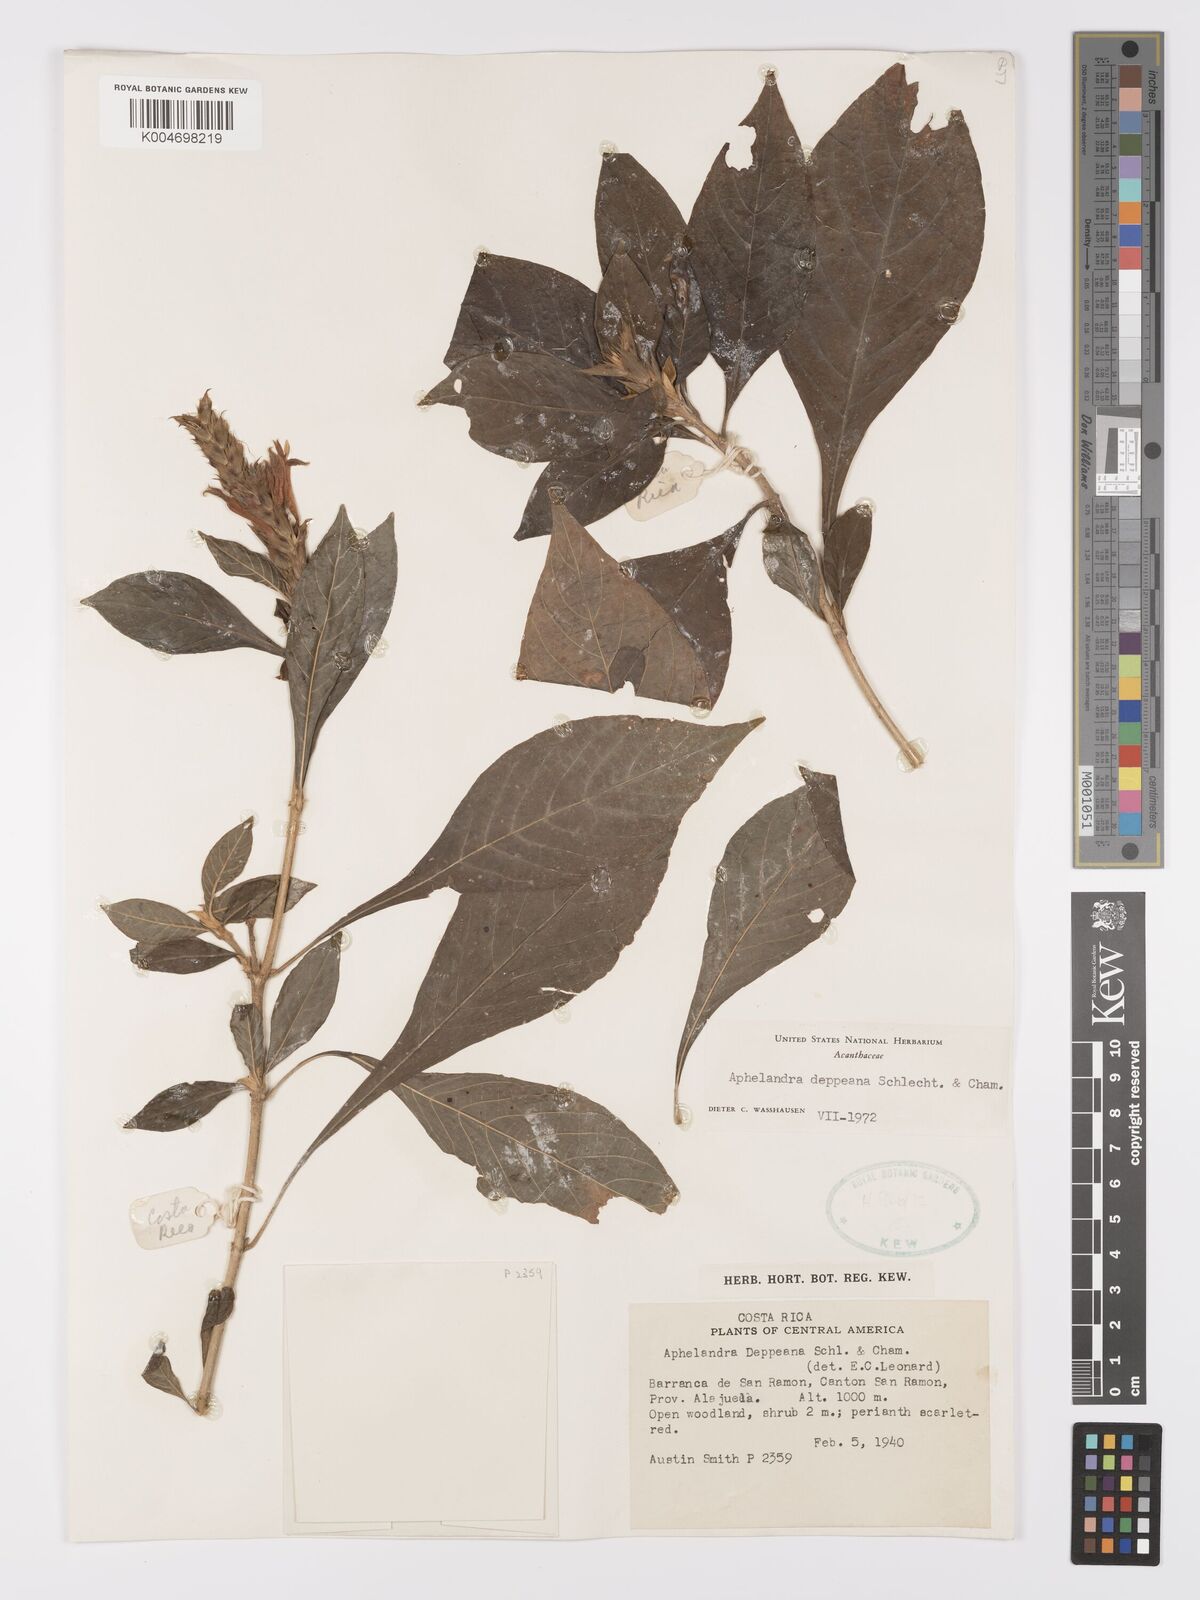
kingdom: Plantae
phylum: Tracheophyta
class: Magnoliopsida
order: Lamiales
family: Acanthaceae
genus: Aphelandra
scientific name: Aphelandra scabra
